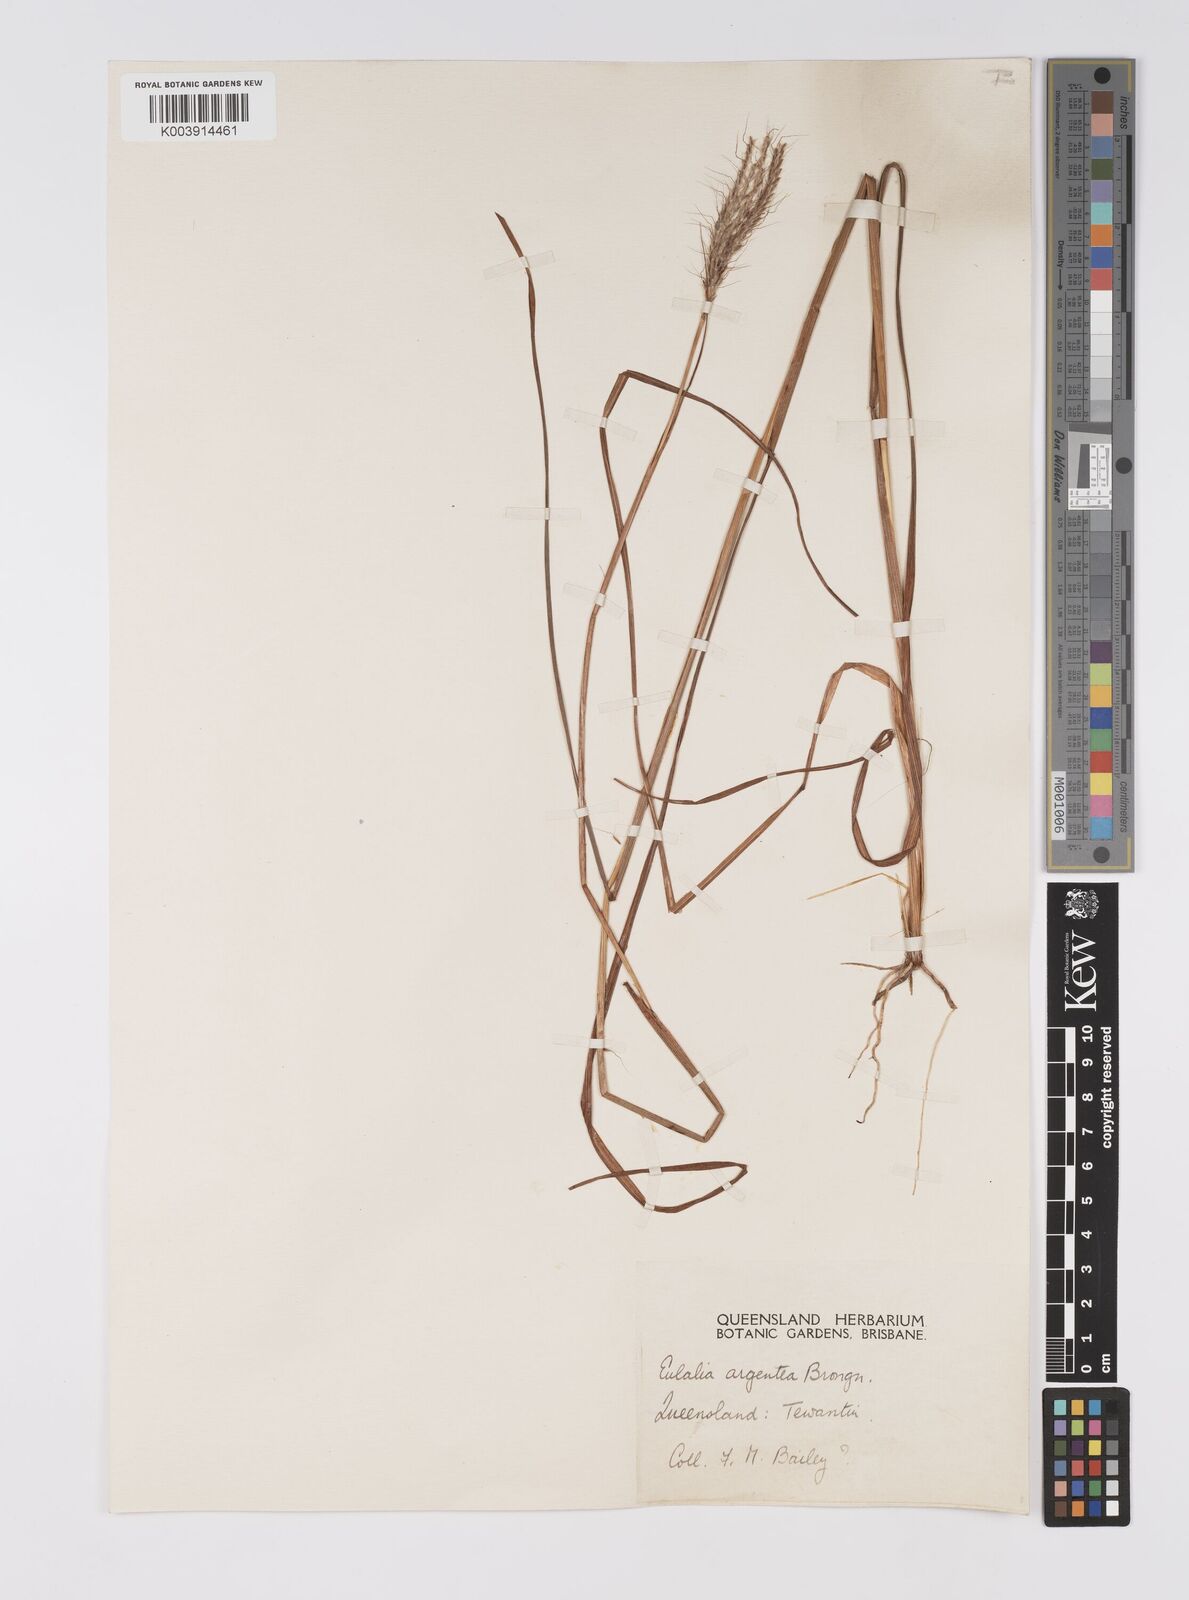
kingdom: Plantae
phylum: Tracheophyta
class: Liliopsida
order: Poales
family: Poaceae
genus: Pseudopogonatherum
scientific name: Pseudopogonatherum trispicatum
